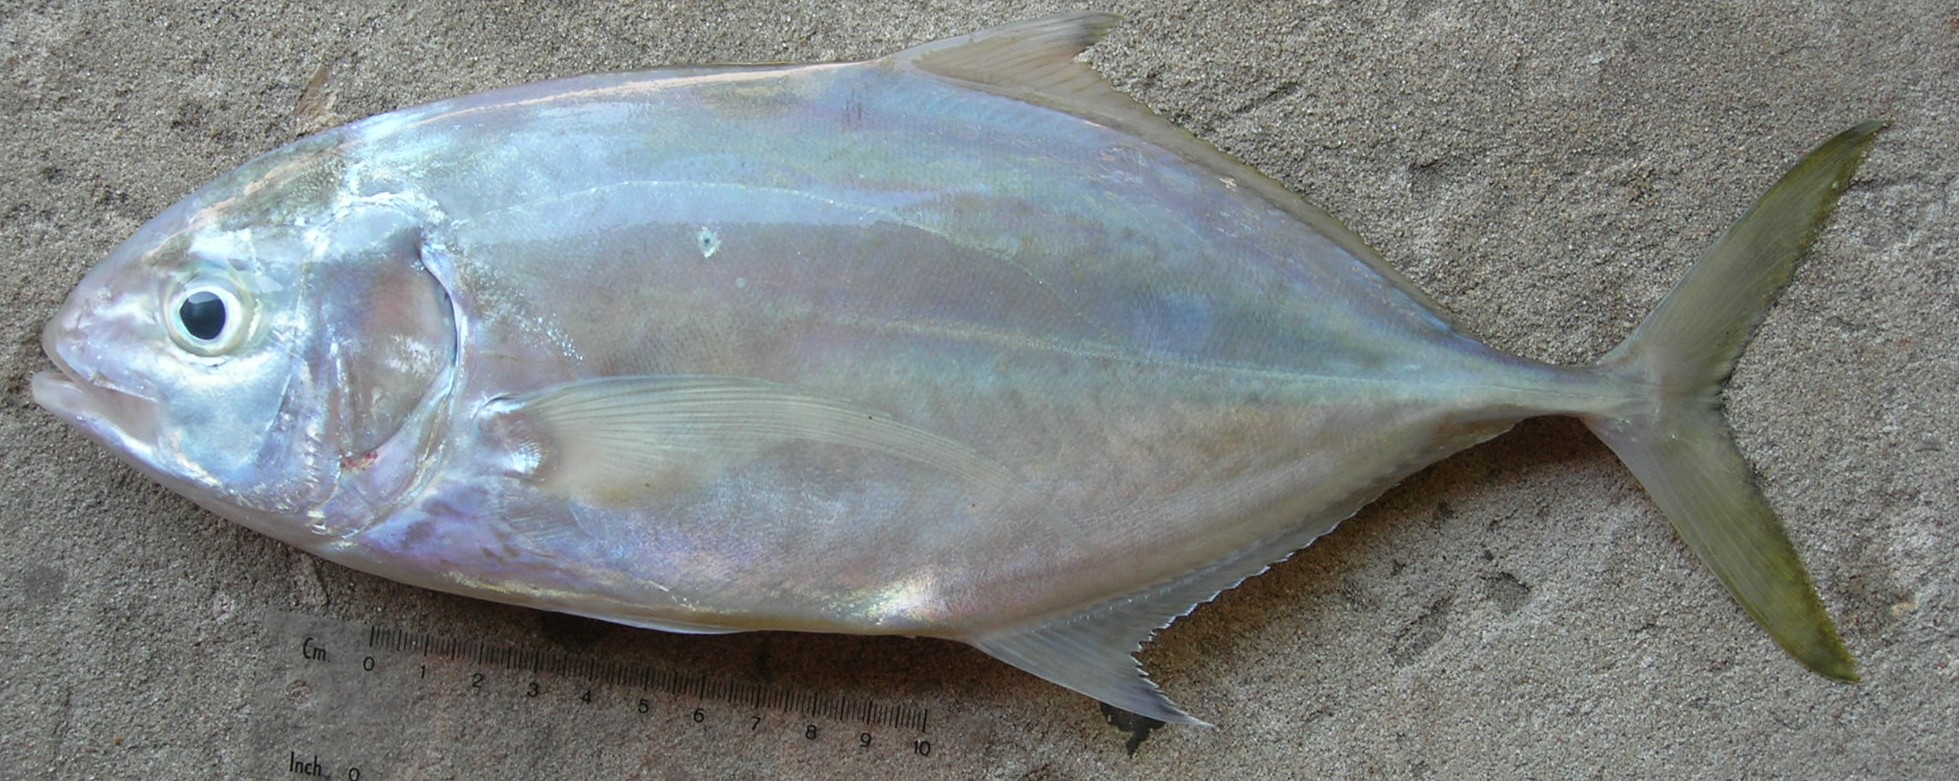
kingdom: Animalia
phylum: Chordata
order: Perciformes
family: Carangidae
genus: Carangoides
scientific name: Carangoides gymnostethus
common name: Bludger
